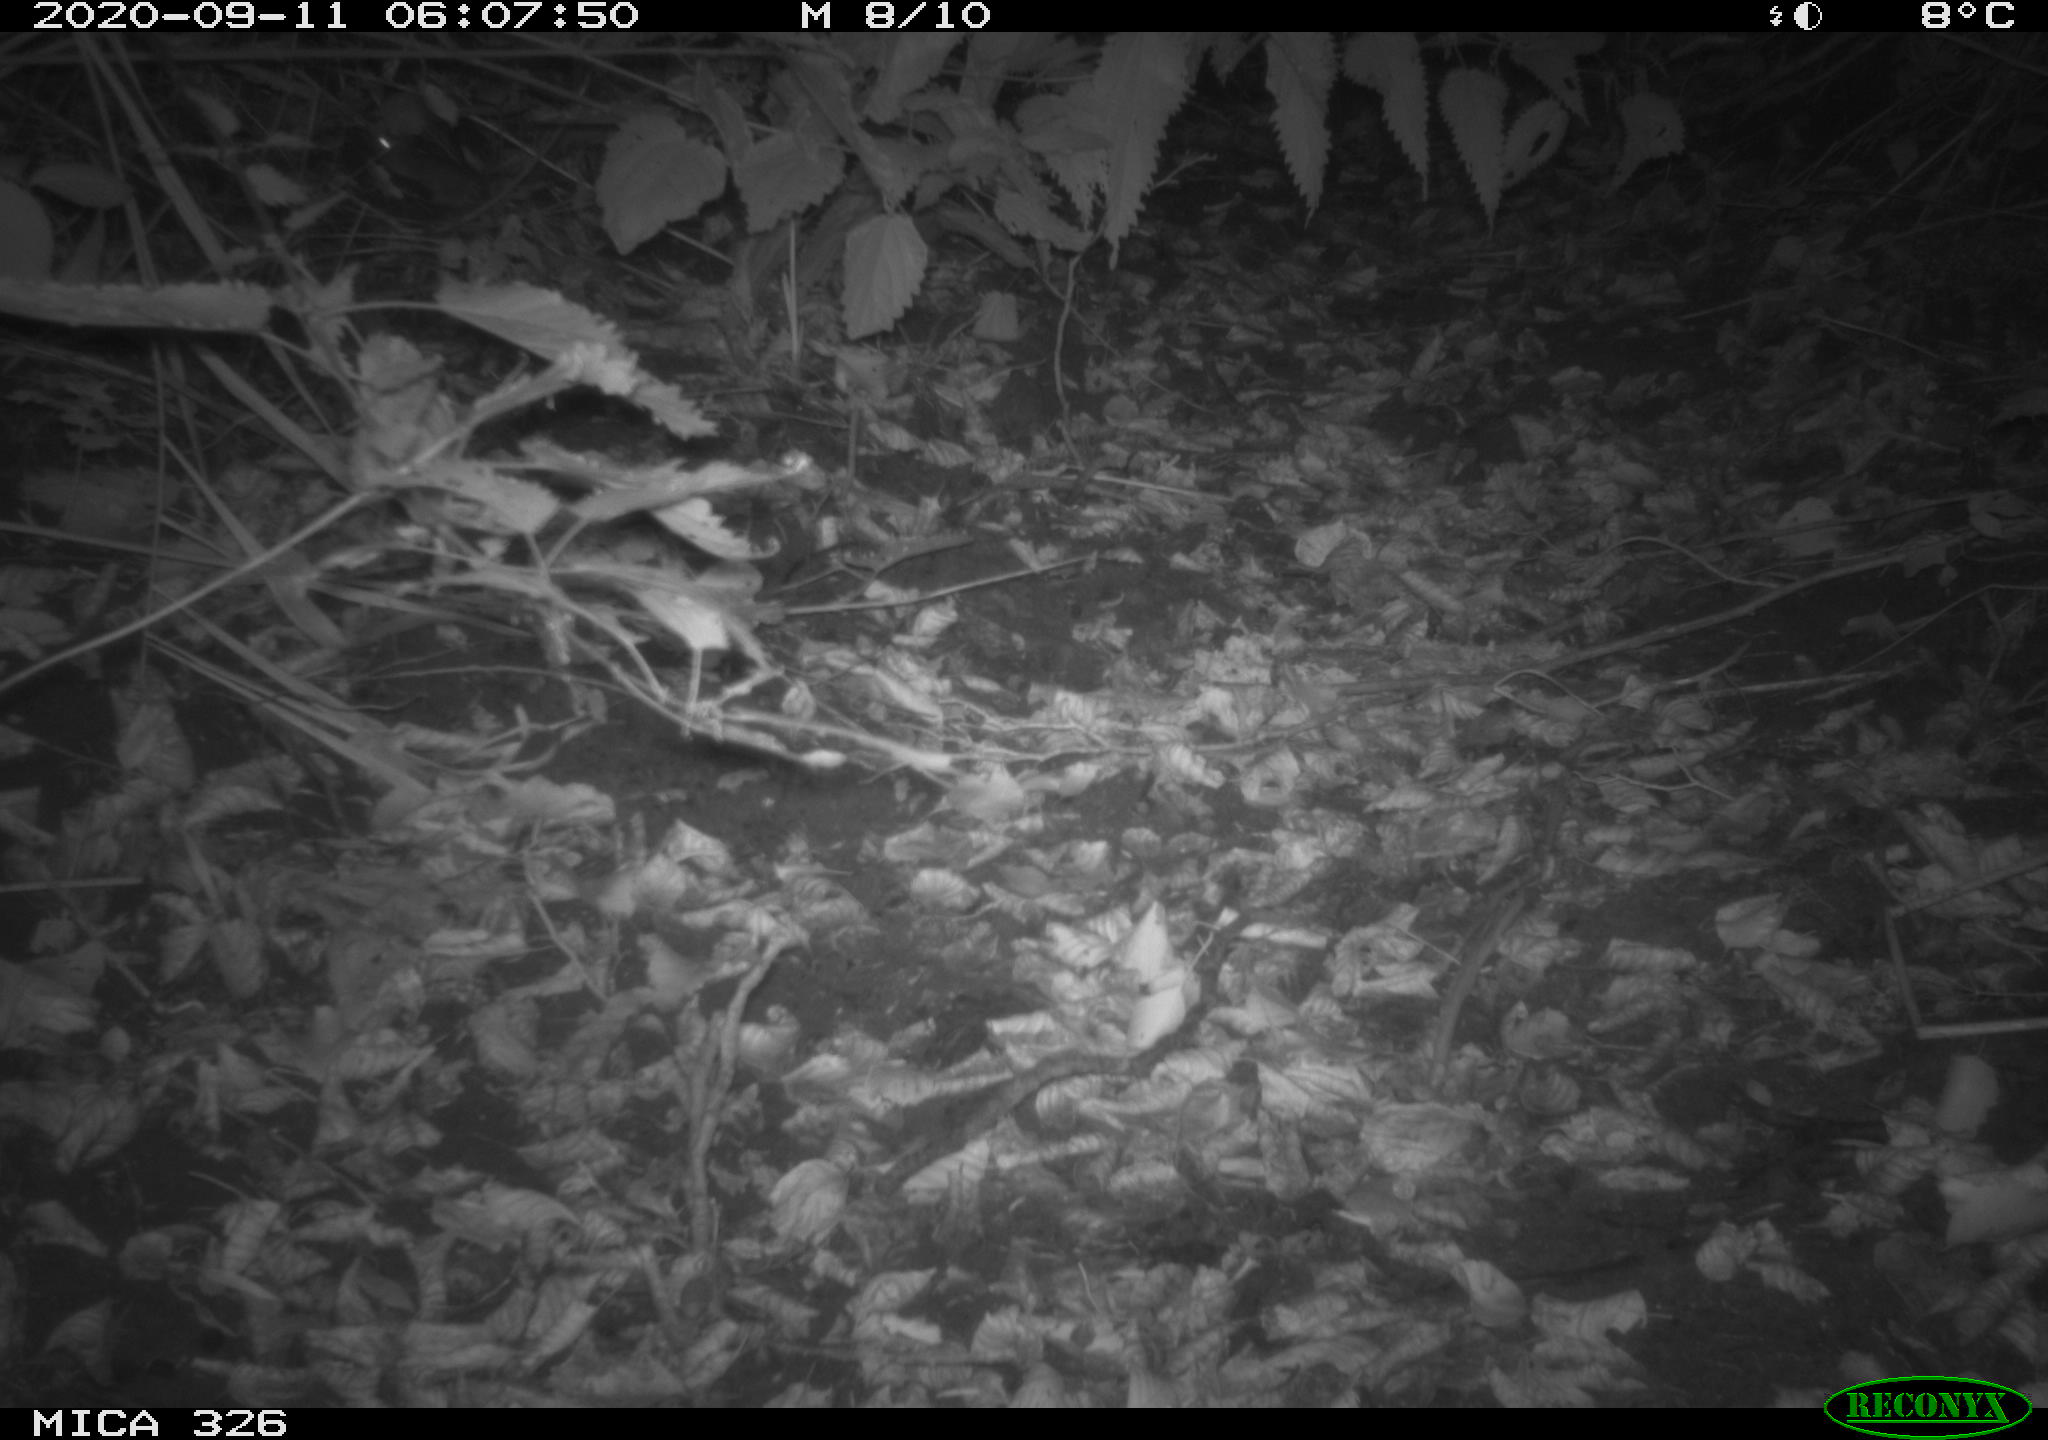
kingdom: Animalia
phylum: Chordata
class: Mammalia
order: Rodentia
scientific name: Rodentia
